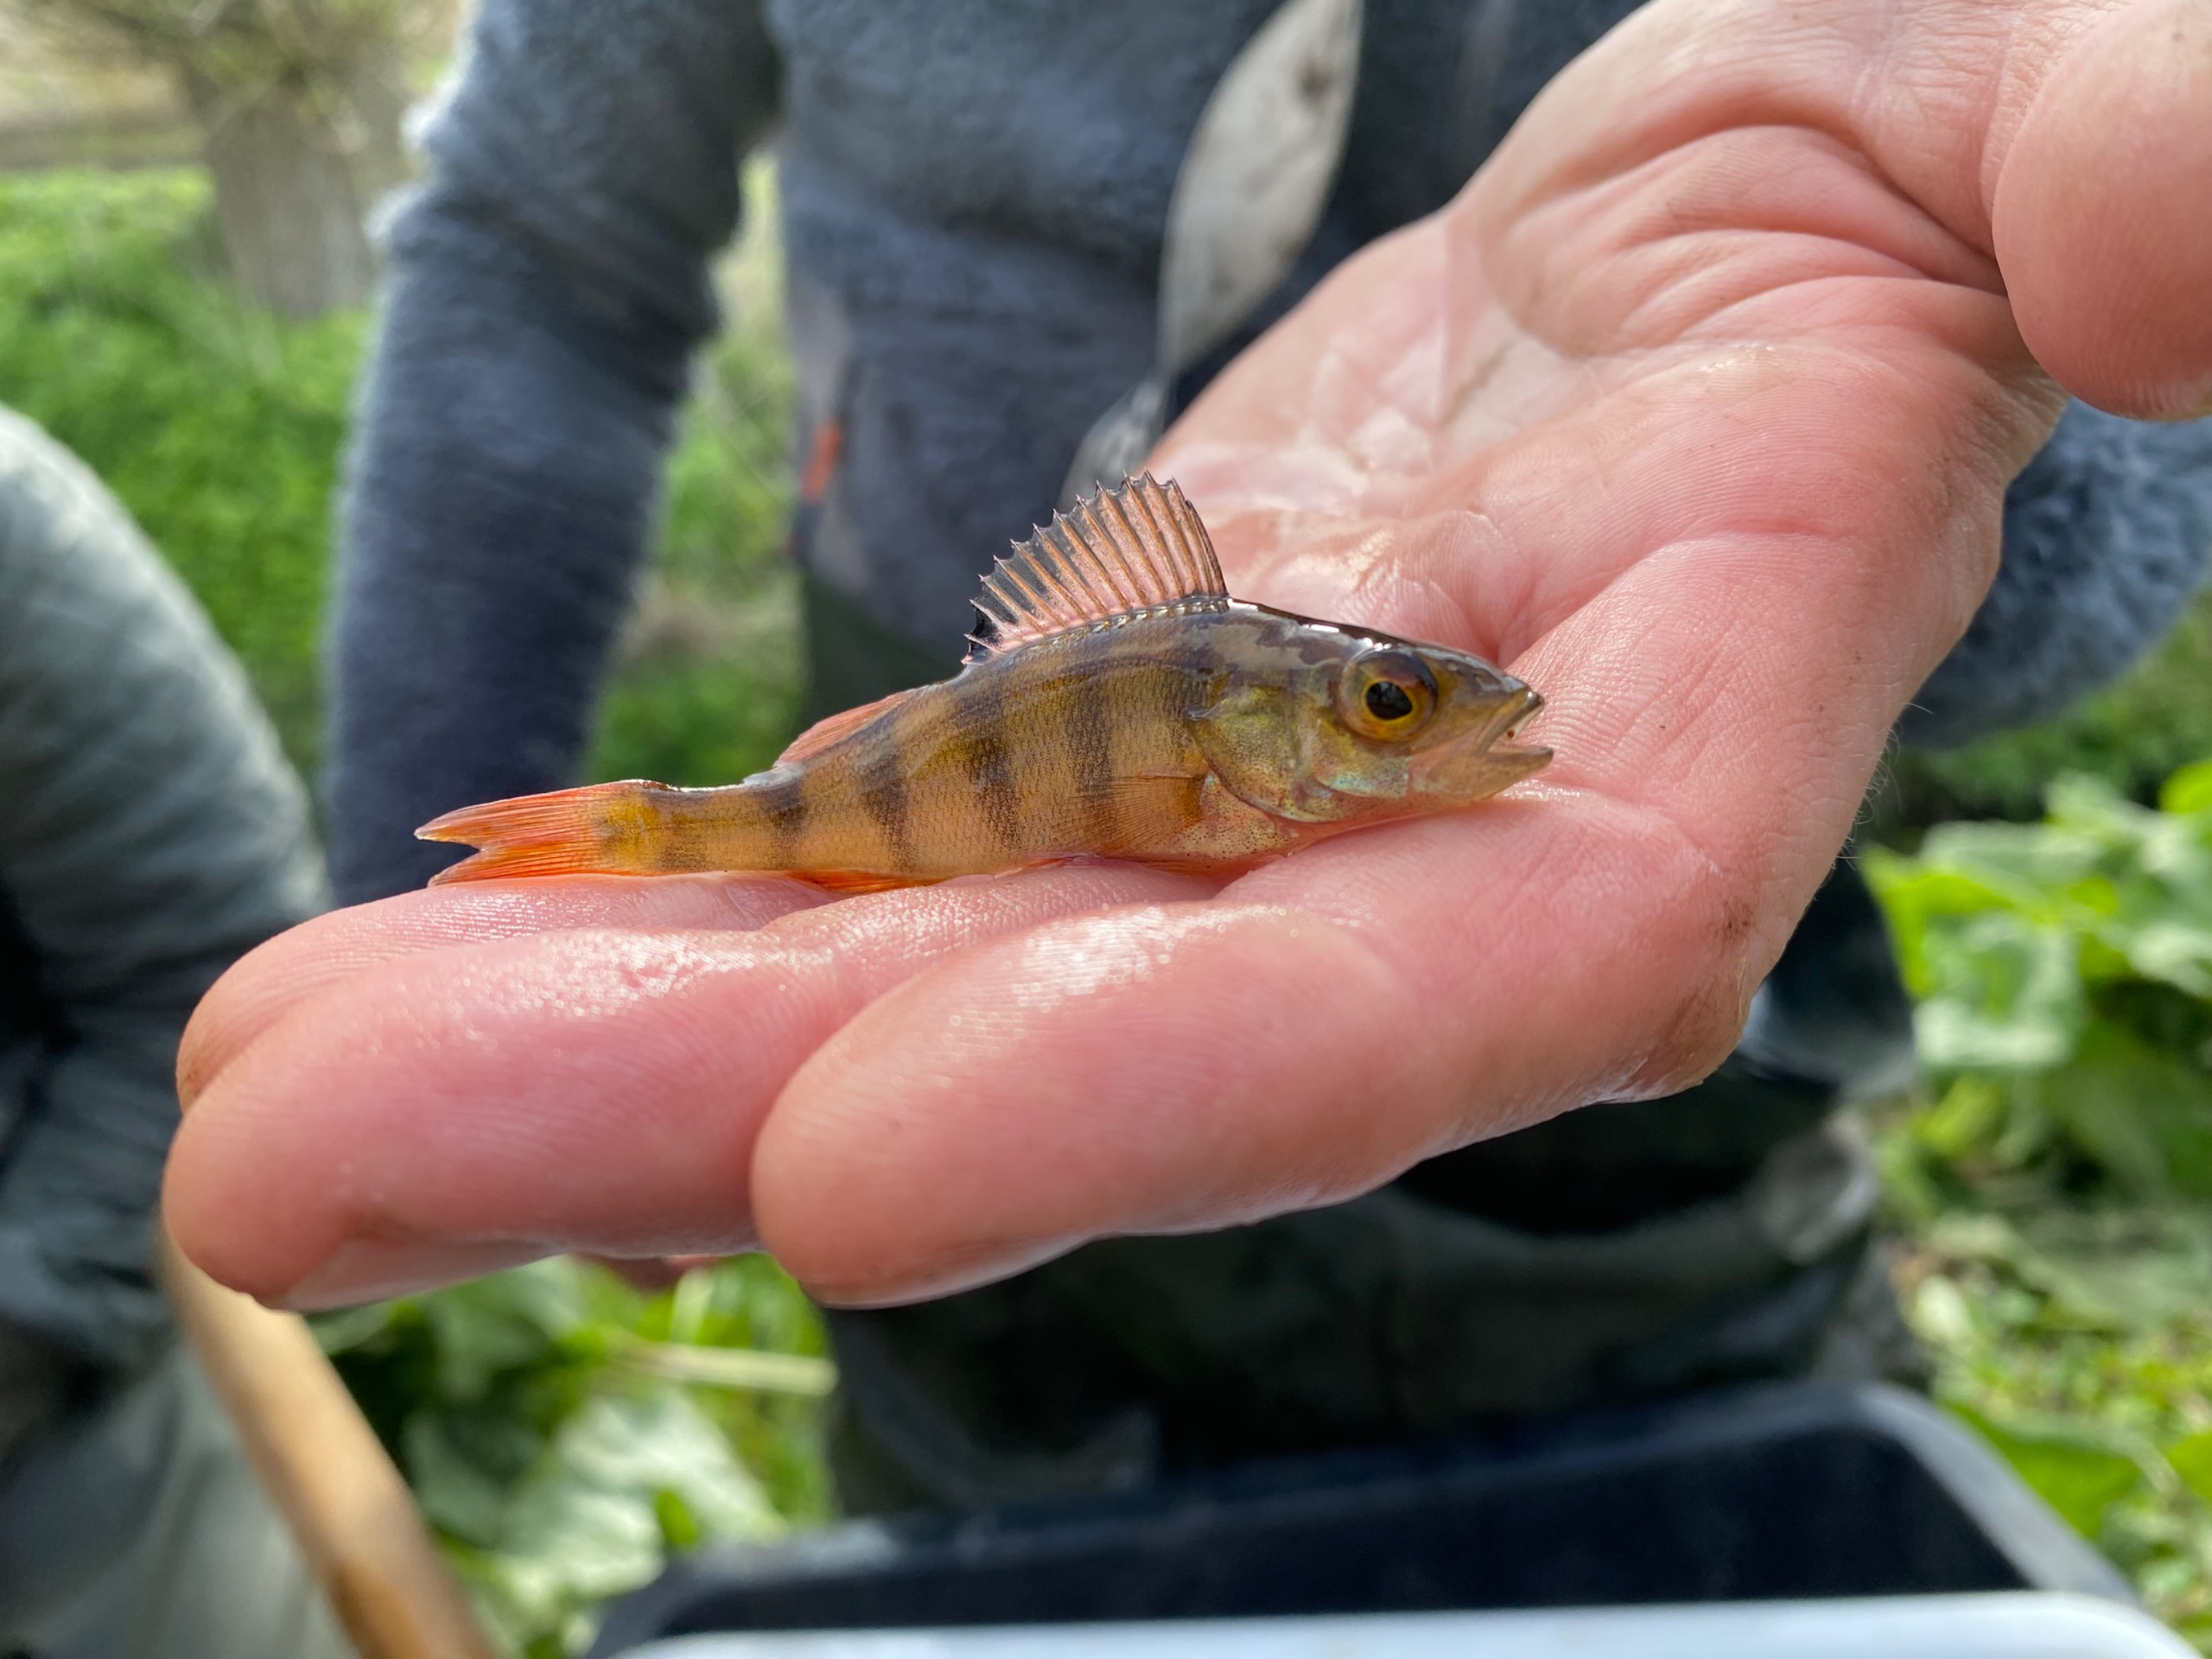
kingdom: Animalia
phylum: Chordata
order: Perciformes
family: Percidae
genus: Perca
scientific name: Perca fluviatilis
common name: Aborre
